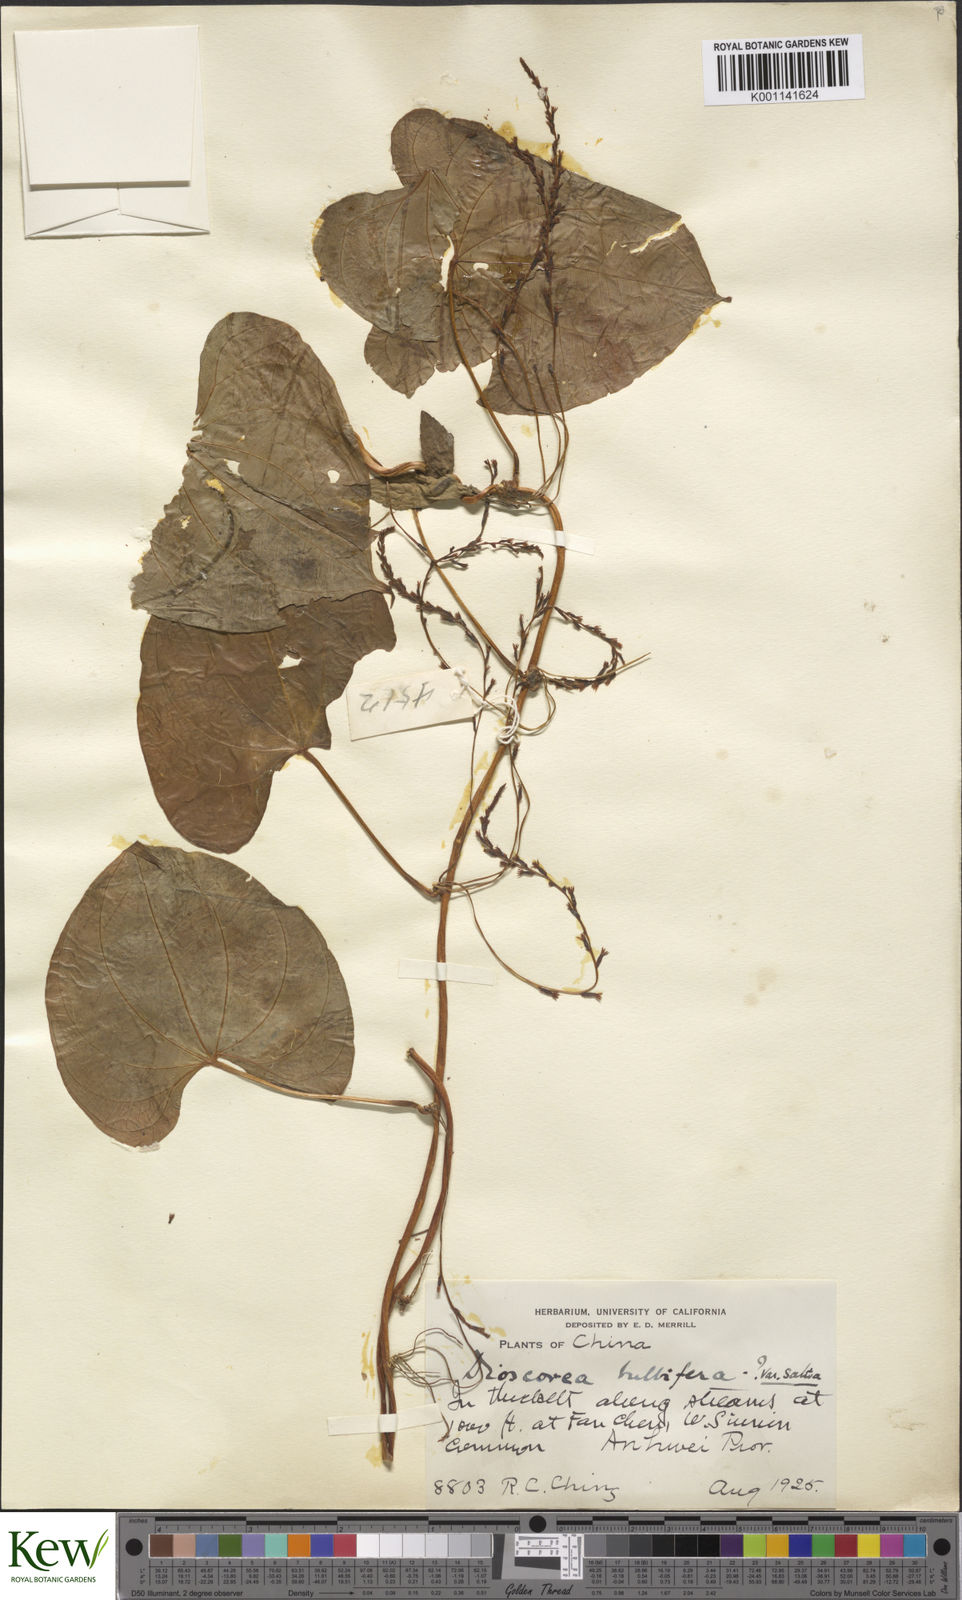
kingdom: Plantae
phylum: Tracheophyta
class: Liliopsida
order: Dioscoreales
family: Dioscoreaceae
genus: Dioscorea
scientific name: Dioscorea bulbifera
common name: Air yam
